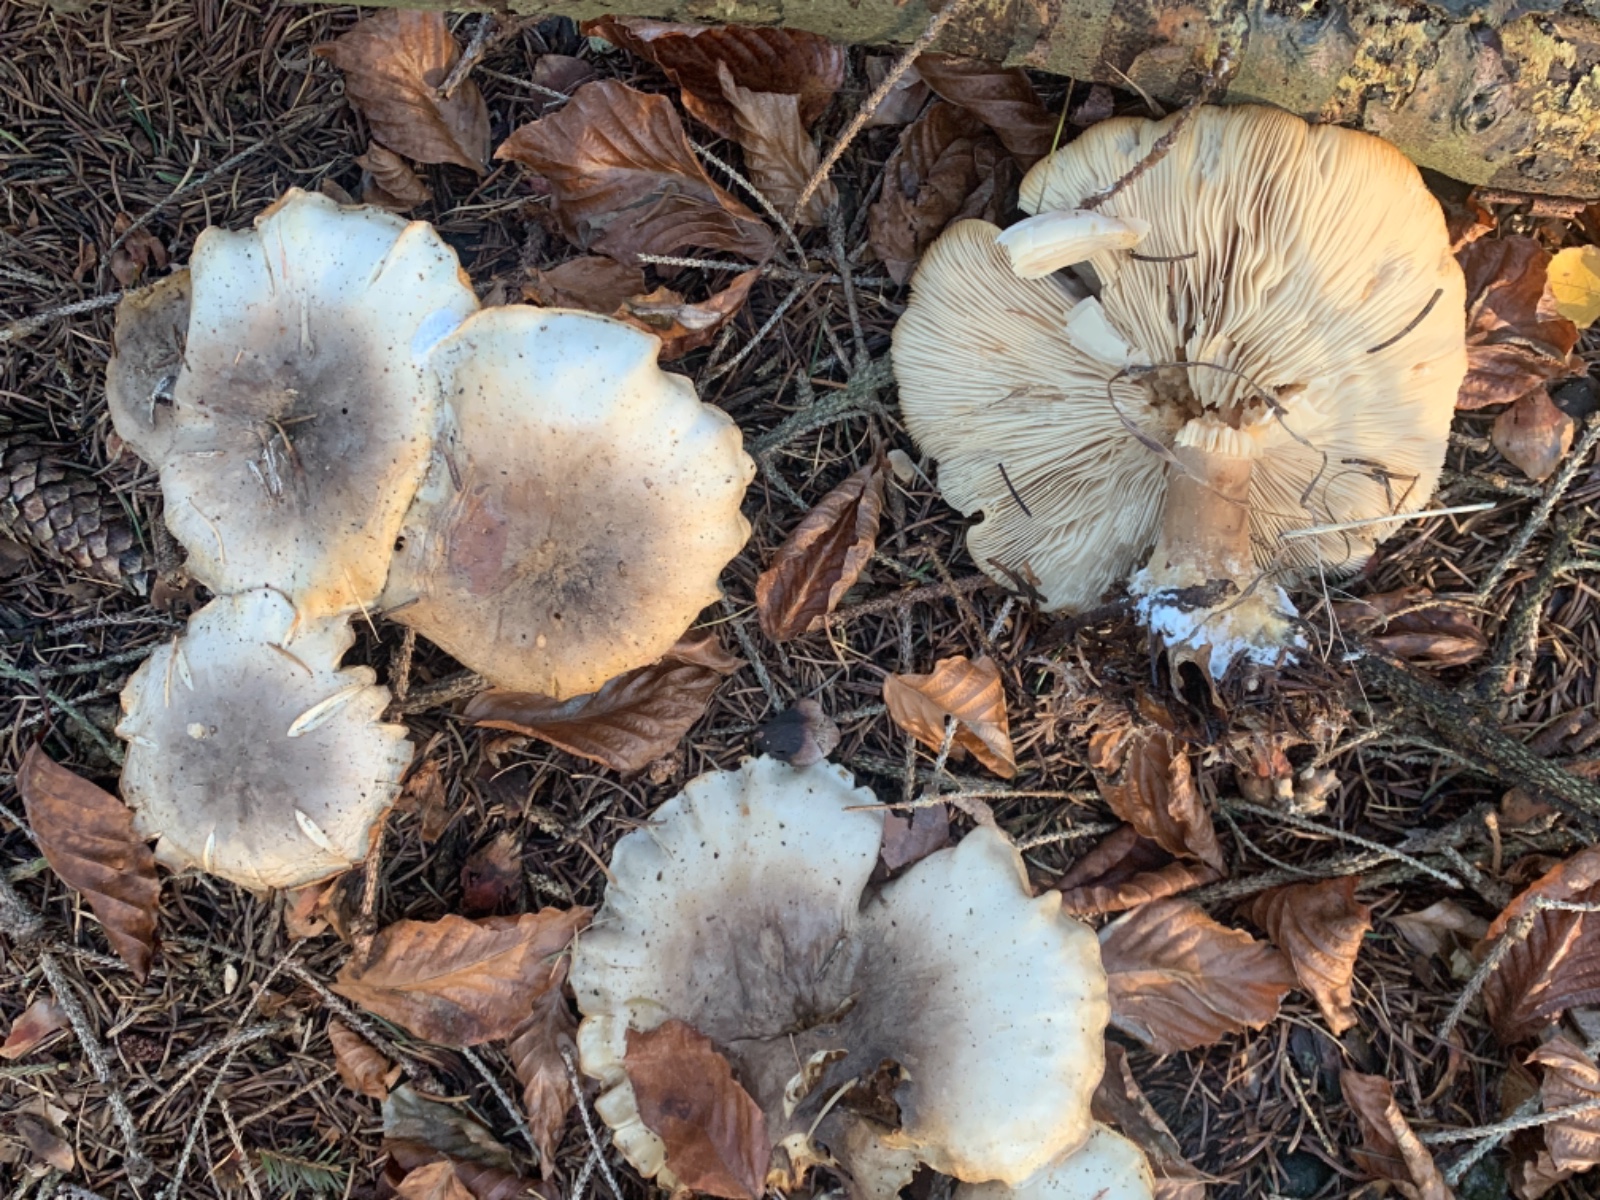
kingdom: Fungi
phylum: Basidiomycota
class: Agaricomycetes
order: Agaricales
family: Tricholomataceae
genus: Clitocybe
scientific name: Clitocybe nebularis
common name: tåge-tragthat
